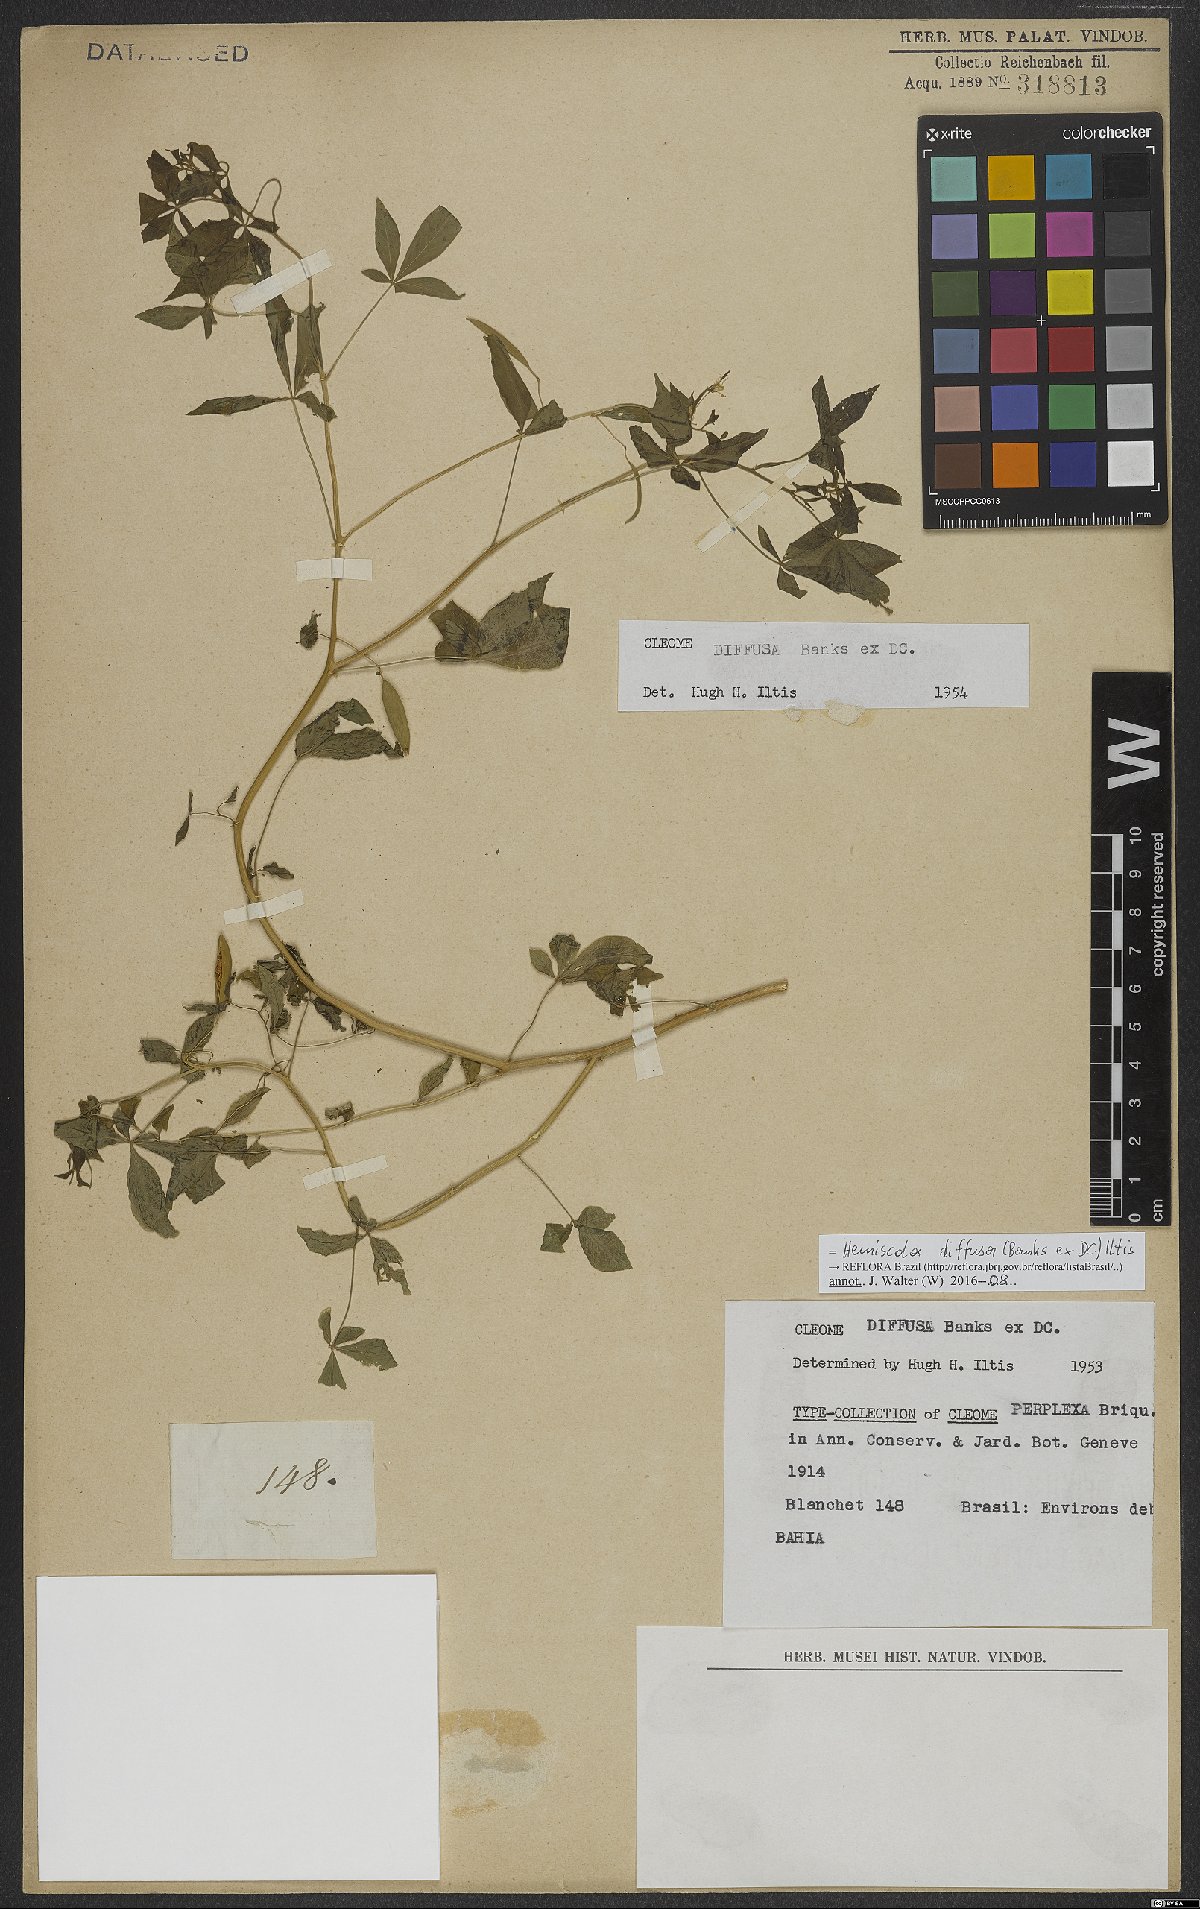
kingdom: Plantae
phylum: Tracheophyta
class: Magnoliopsida
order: Brassicales
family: Cleomaceae
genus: Tarenaya
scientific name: Tarenaya diffusa
